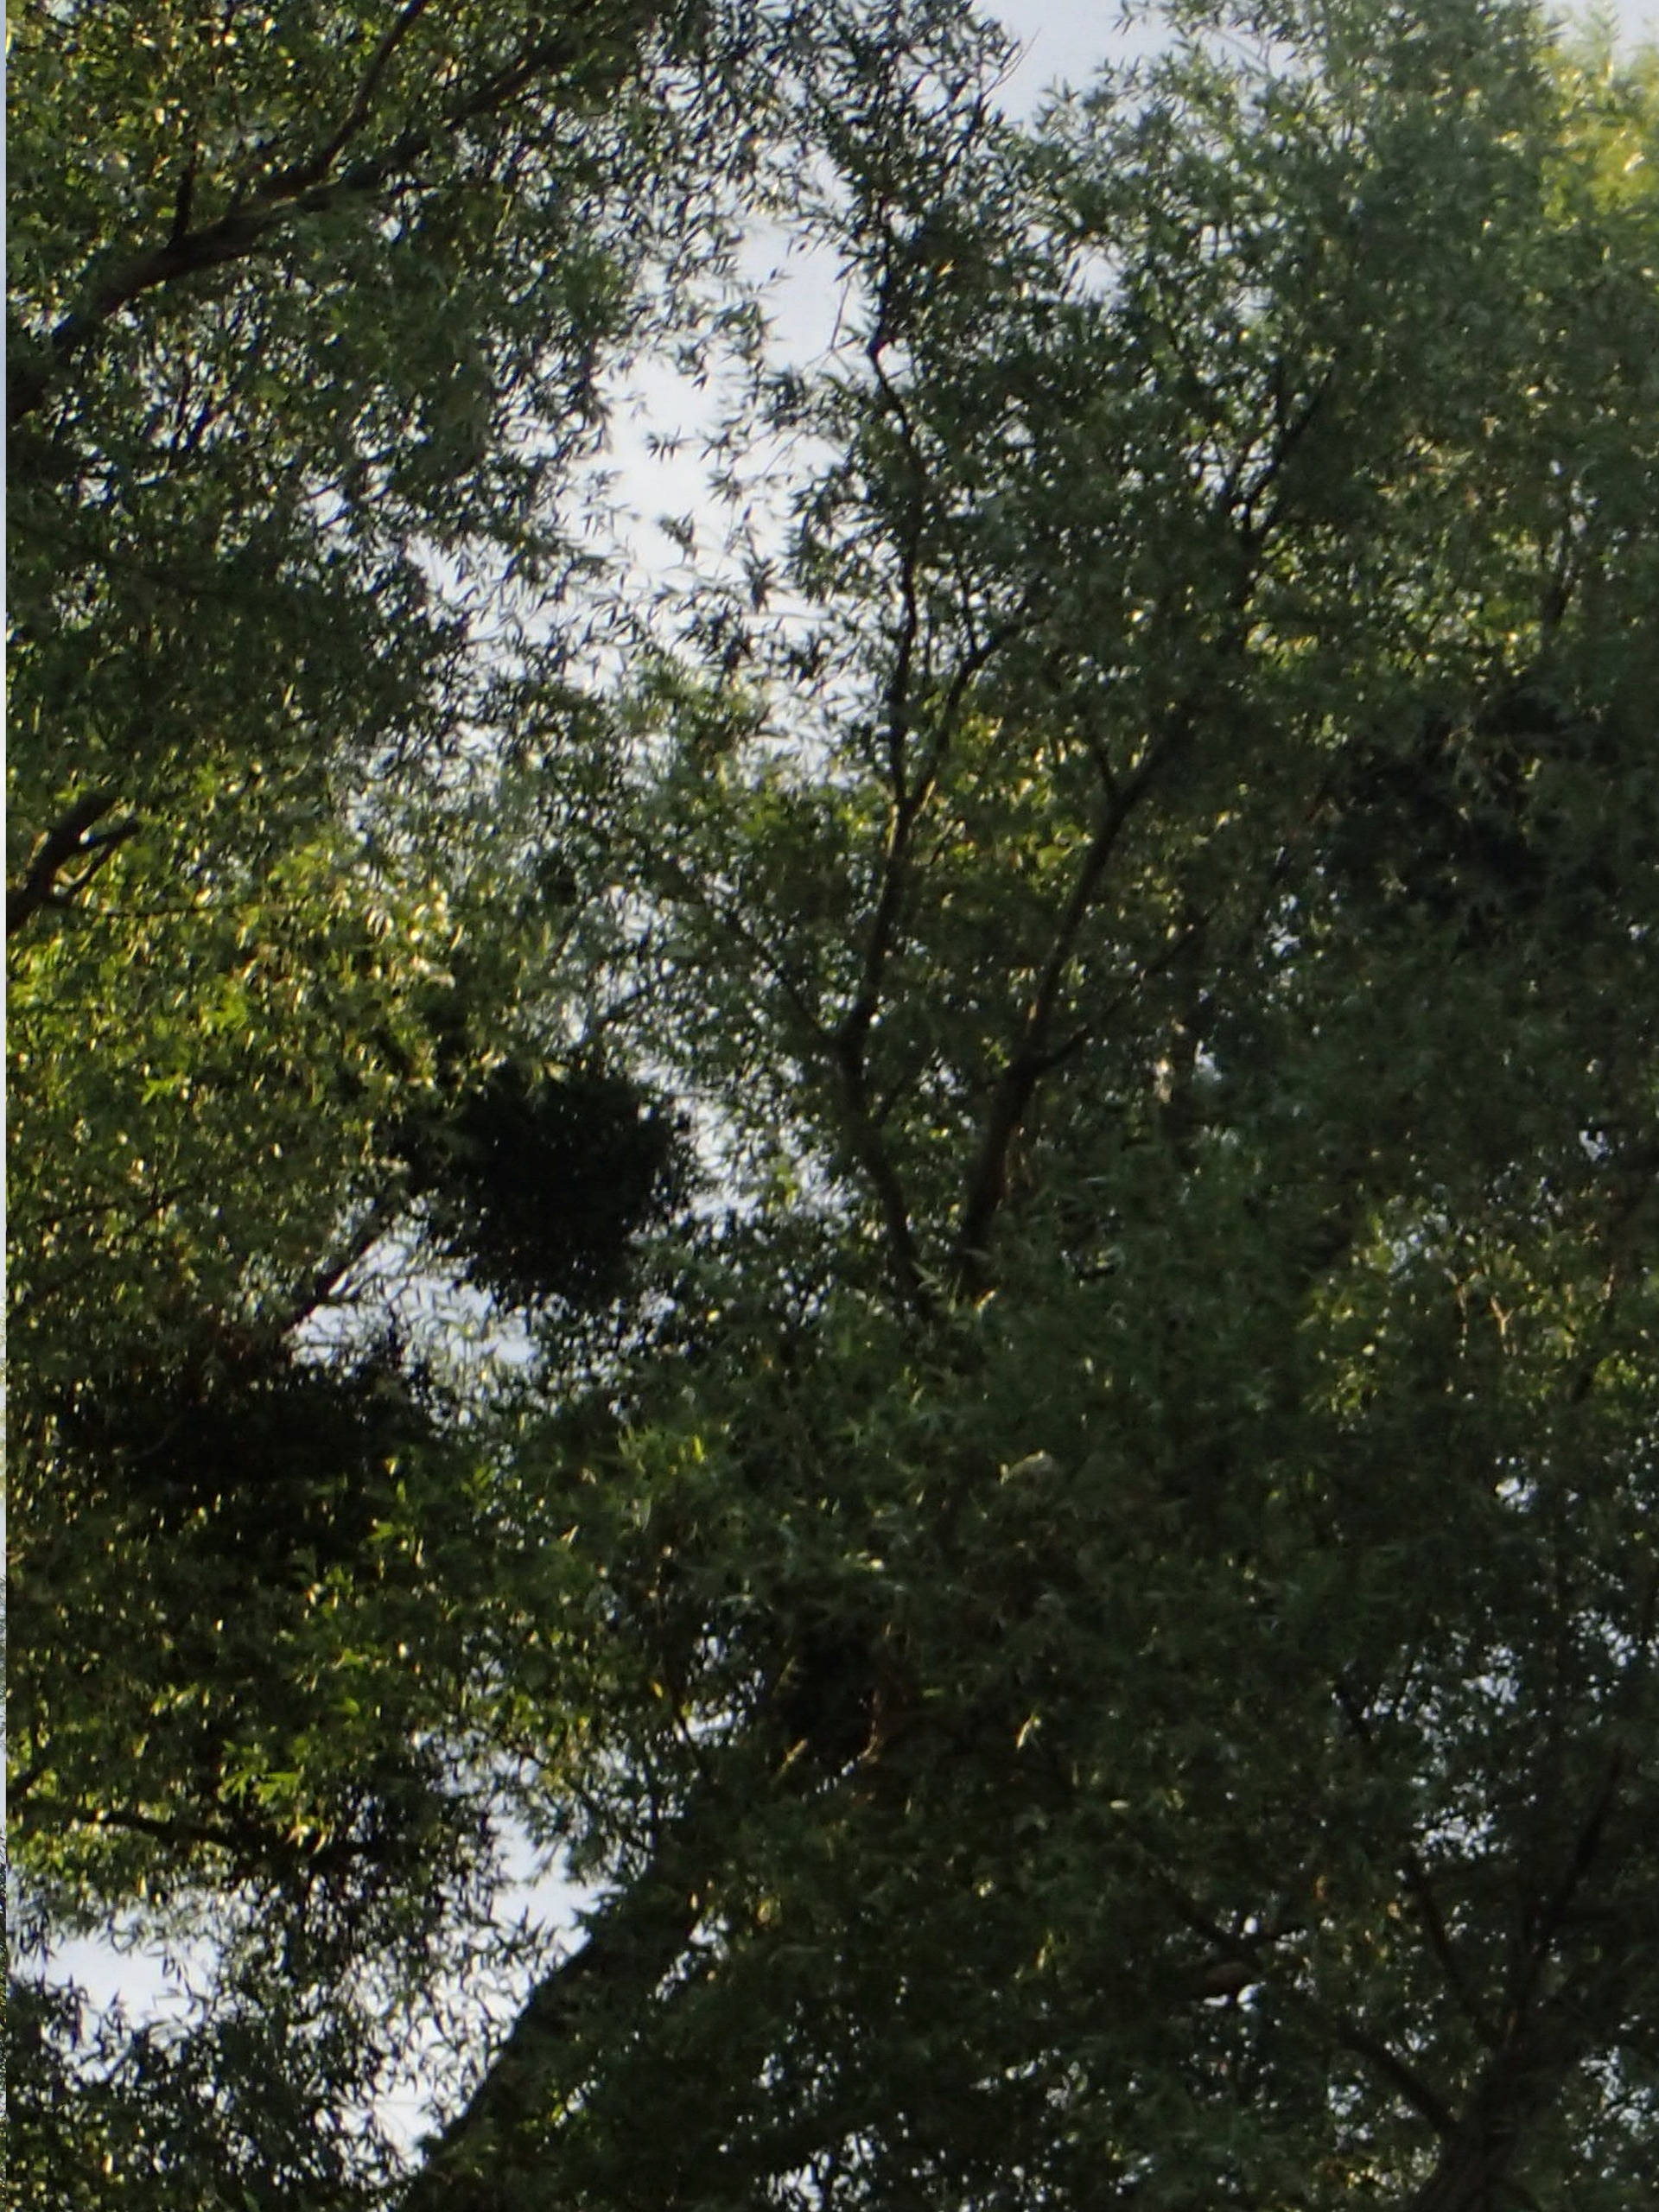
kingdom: Plantae
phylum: Tracheophyta
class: Magnoliopsida
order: Santalales
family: Viscaceae
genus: Viscum
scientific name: Viscum album
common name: Mistelten
